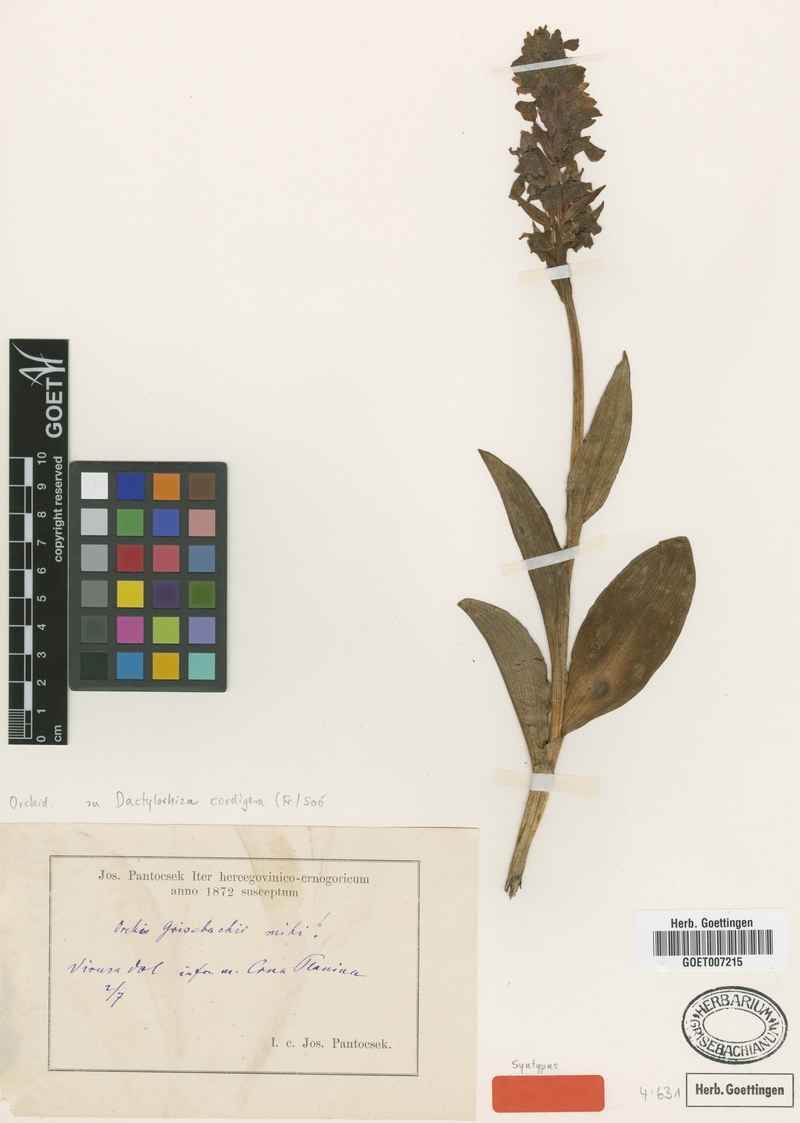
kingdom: Plantae
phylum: Tracheophyta
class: Liliopsida
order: Asparagales
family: Orchidaceae
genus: Dactylorhiza
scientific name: Dactylorhiza majalis
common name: Marsh orchid
